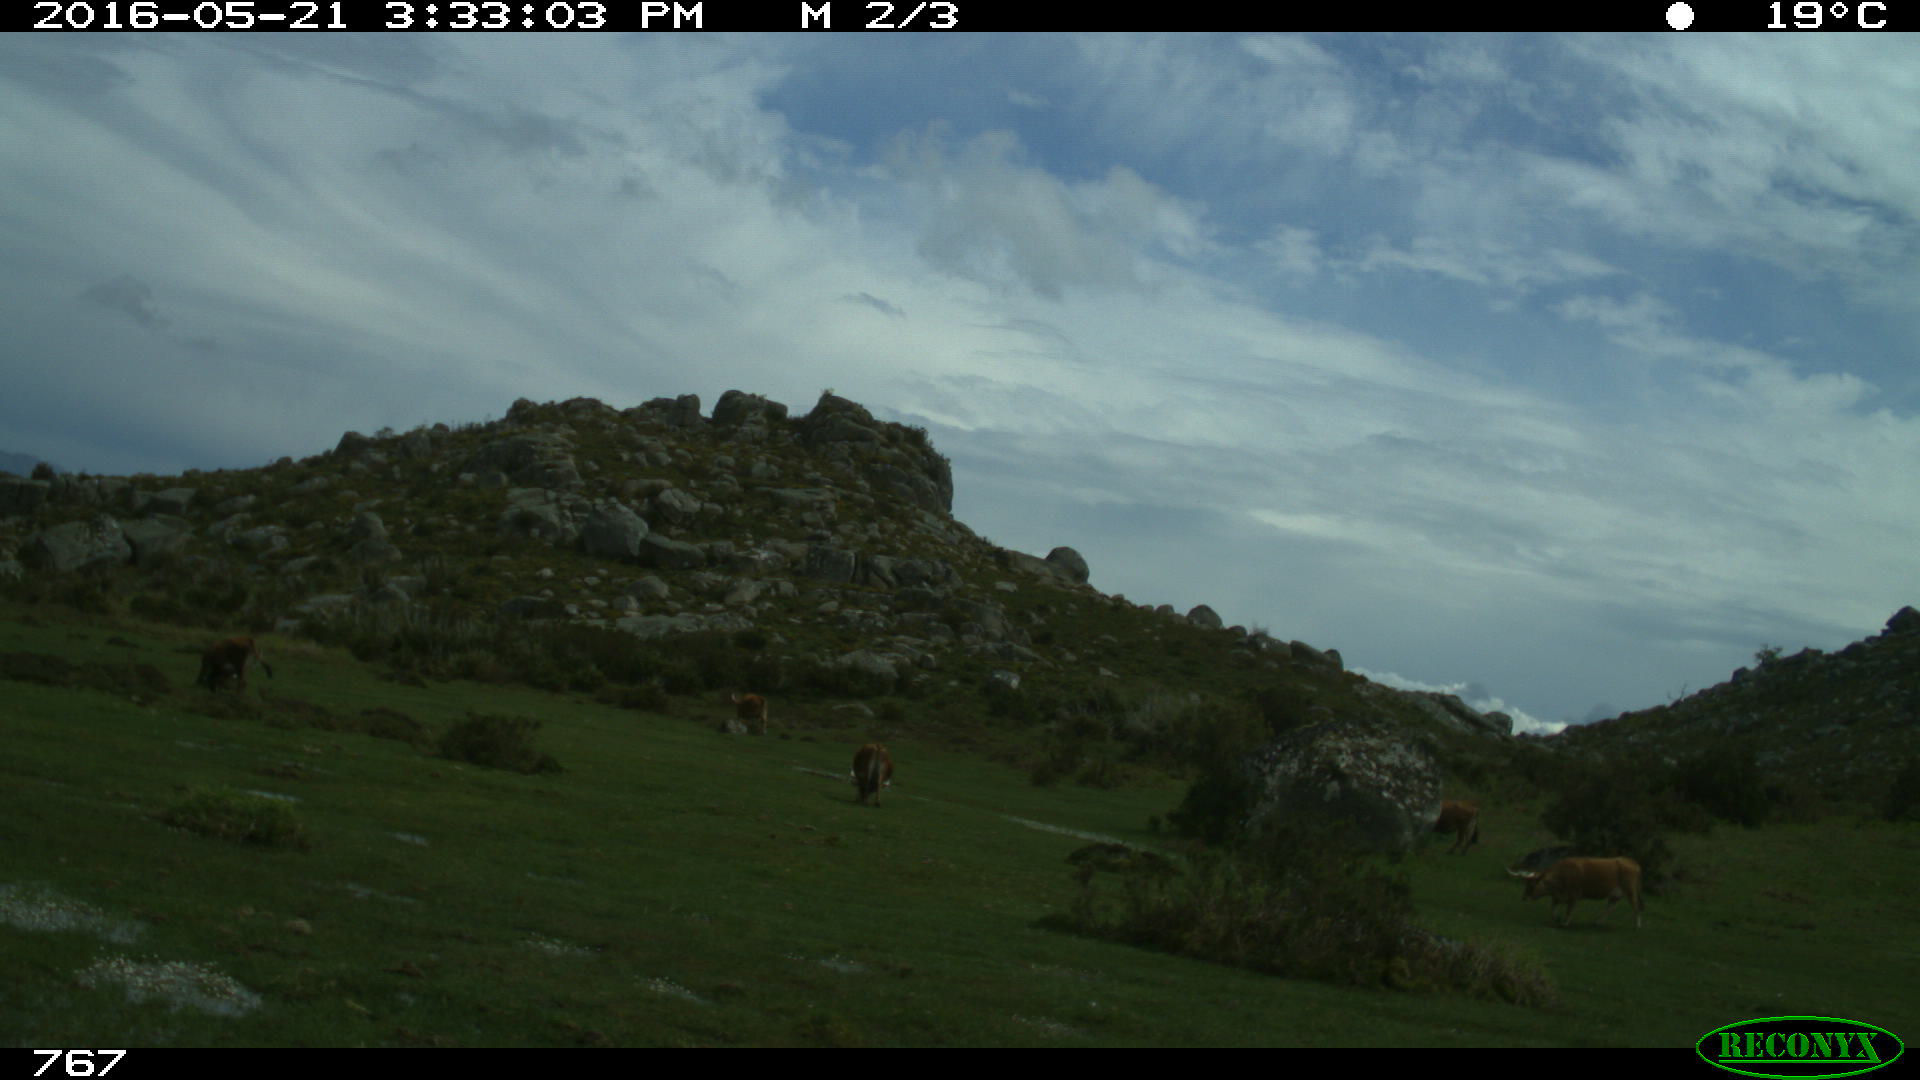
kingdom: Animalia
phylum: Chordata
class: Mammalia
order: Artiodactyla
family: Bovidae
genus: Bos
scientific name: Bos taurus
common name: Domesticated cattle
